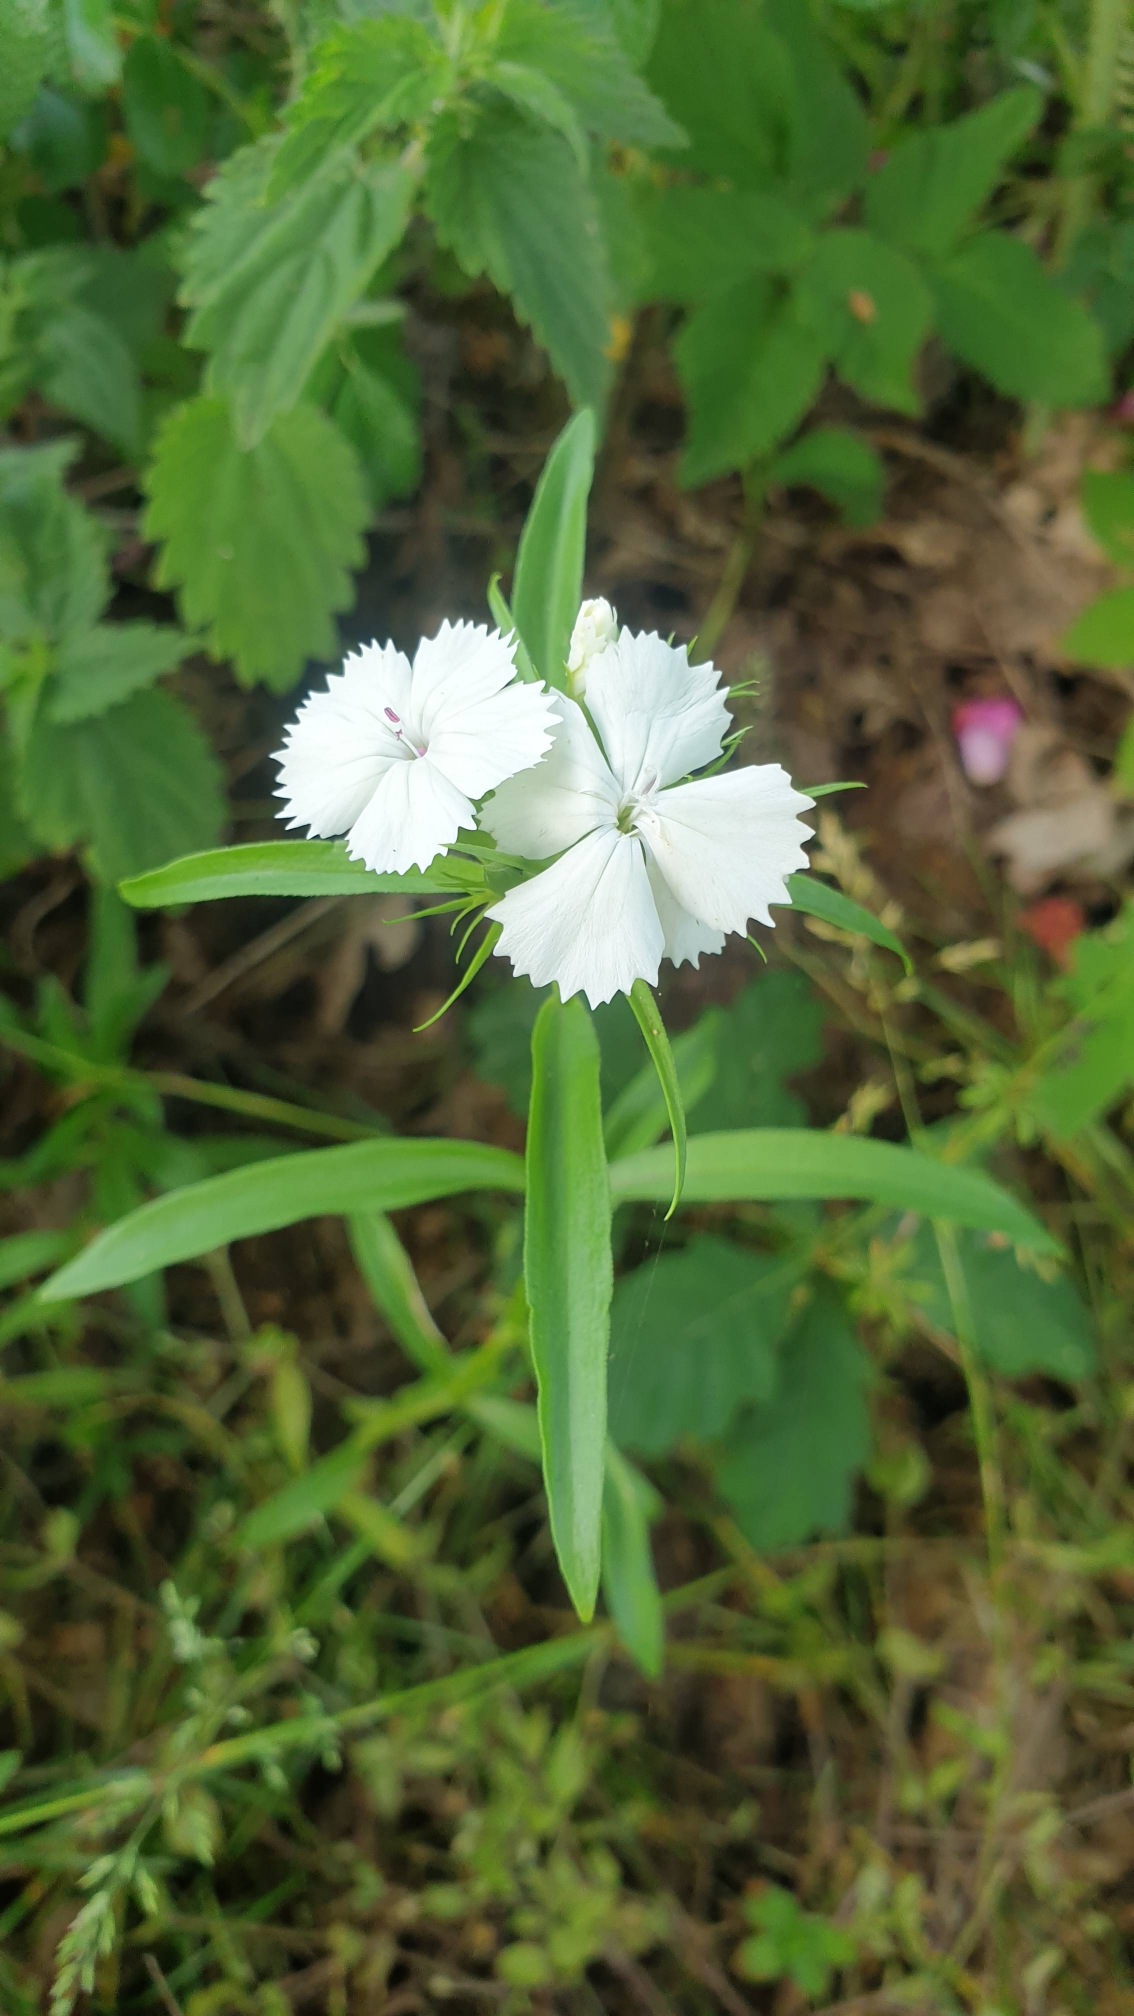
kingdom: Plantae
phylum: Tracheophyta
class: Magnoliopsida
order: Caryophyllales
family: Caryophyllaceae
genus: Dianthus
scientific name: Dianthus barbatus
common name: Studenter-nellike
